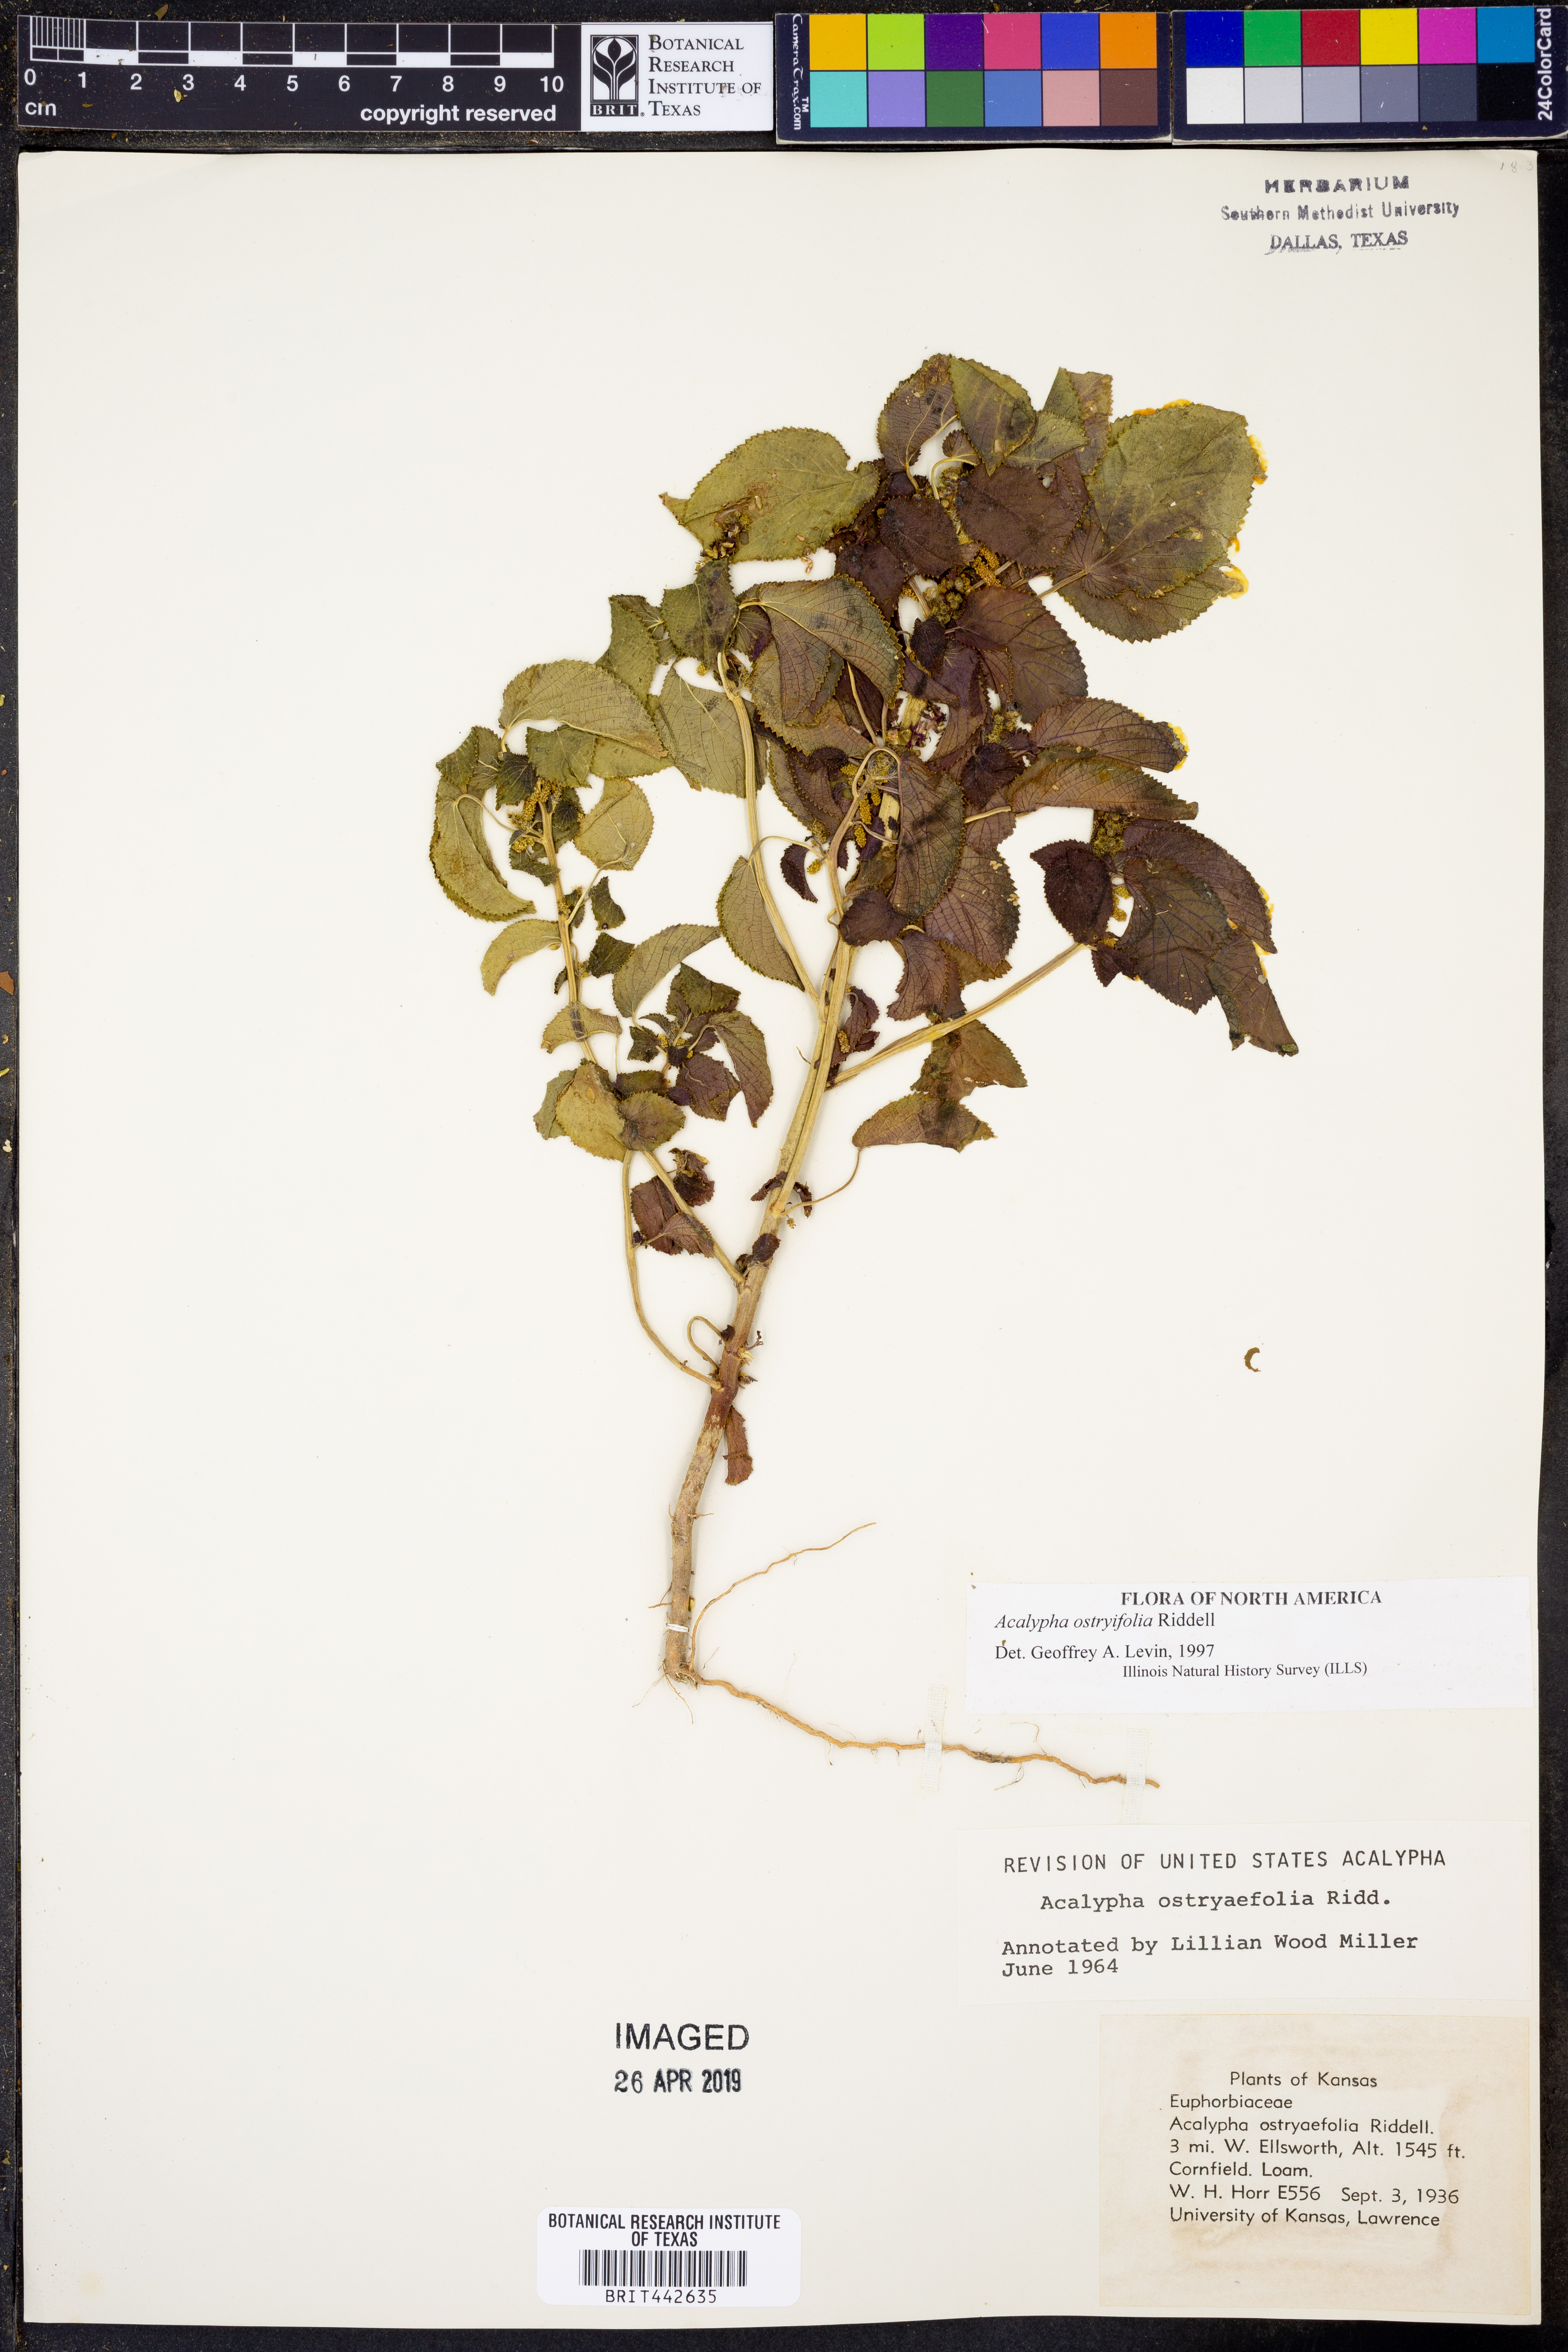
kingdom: Plantae
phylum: Tracheophyta
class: Magnoliopsida
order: Malpighiales
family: Euphorbiaceae
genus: Acalypha
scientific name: Acalypha persimilis
